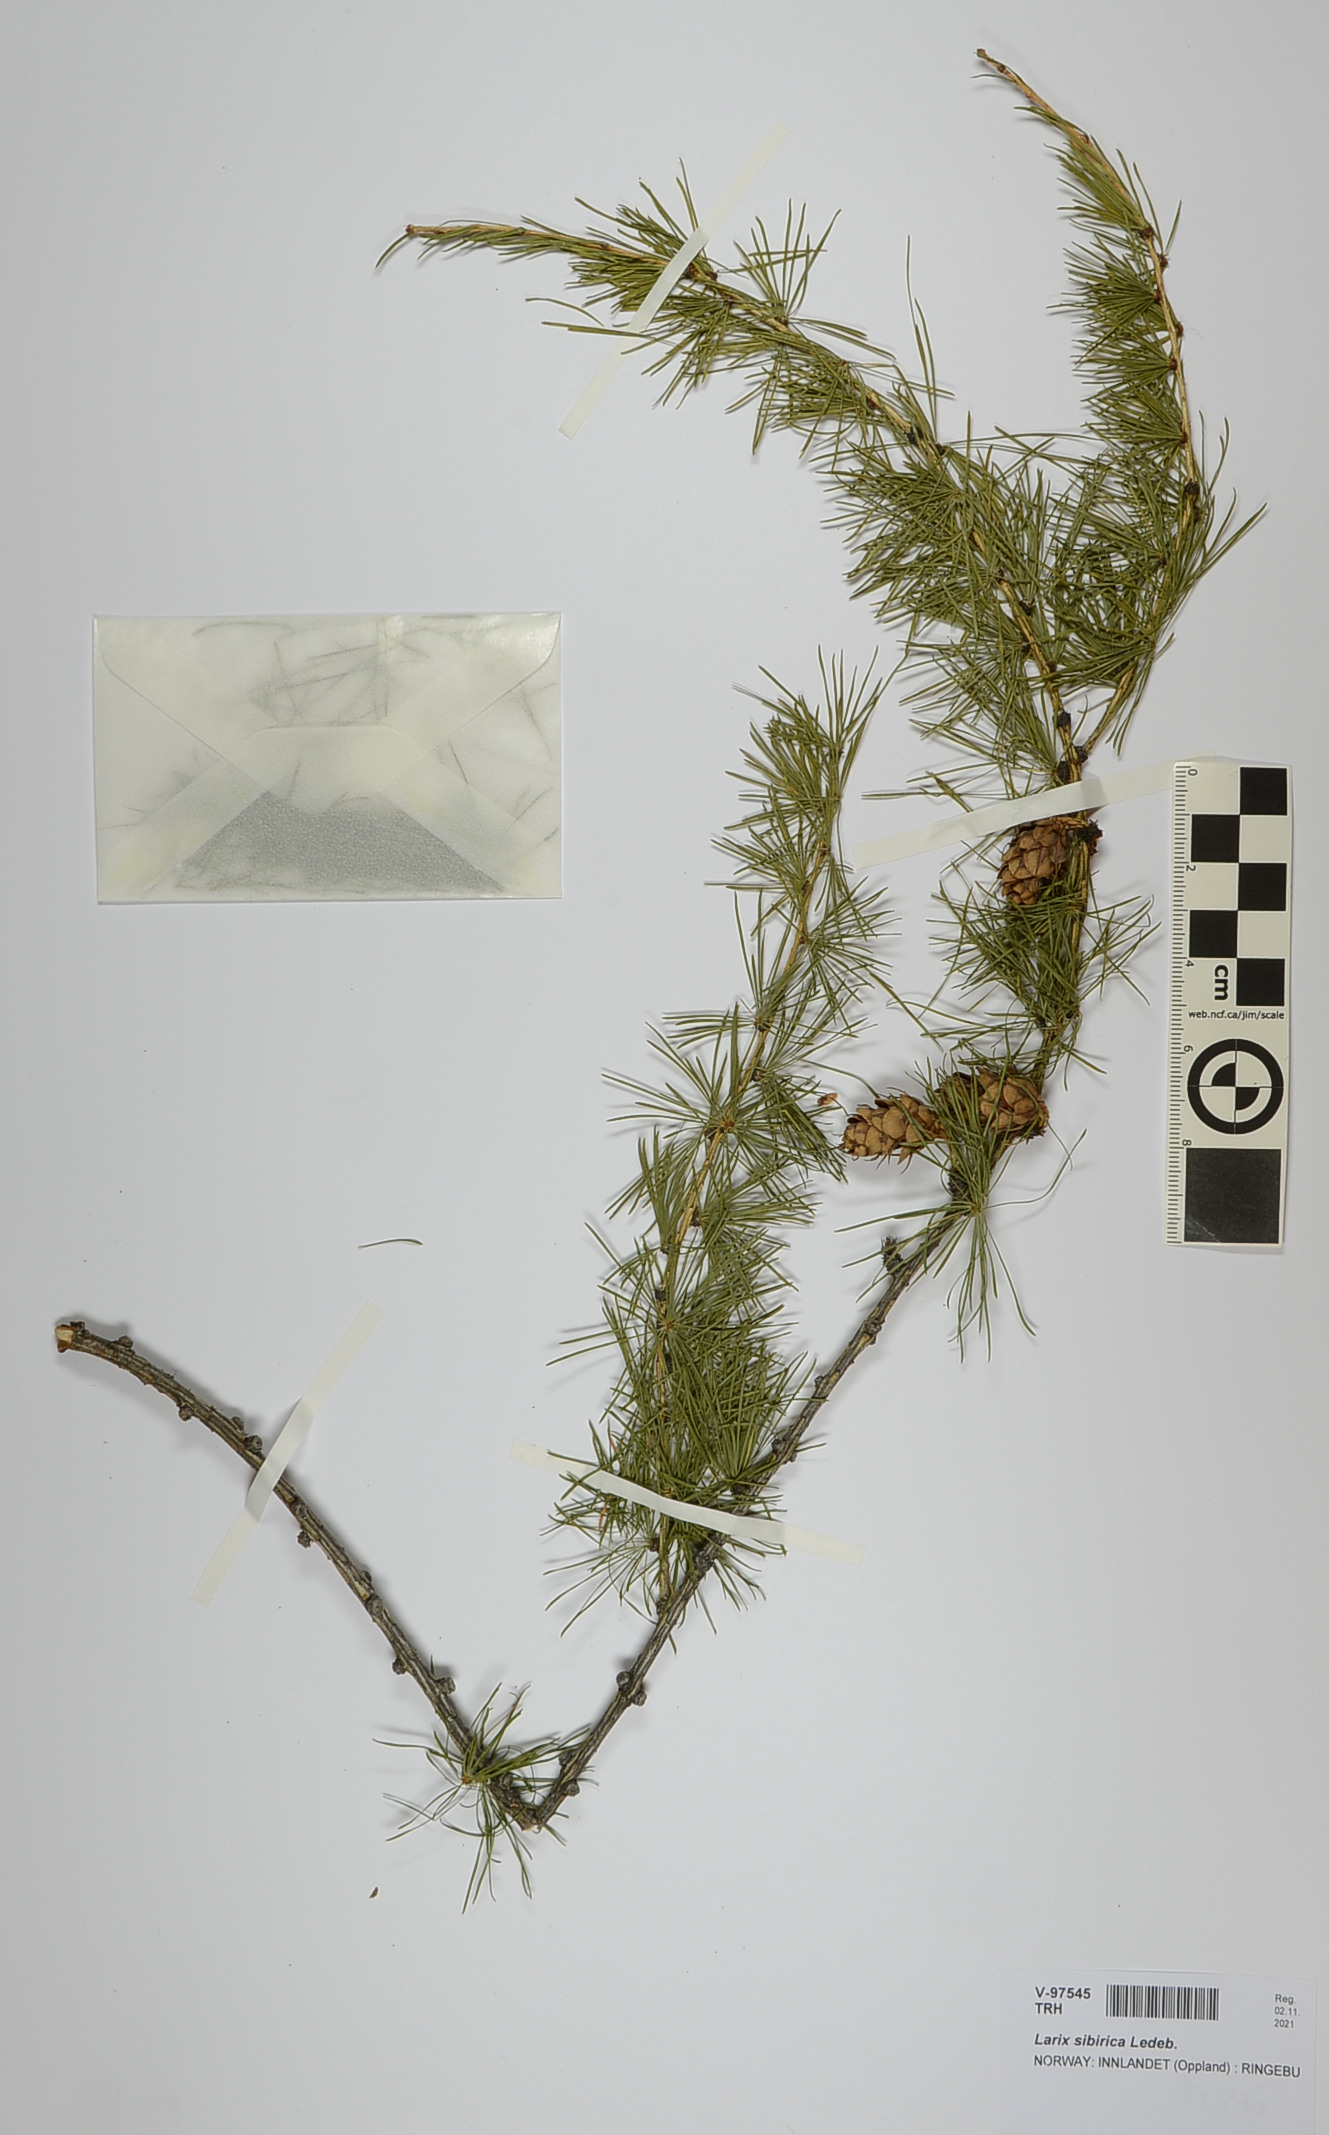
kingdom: Plantae
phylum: Tracheophyta
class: Pinopsida
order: Pinales
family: Pinaceae
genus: Larix
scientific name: Larix sibirica
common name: Siberian larch
